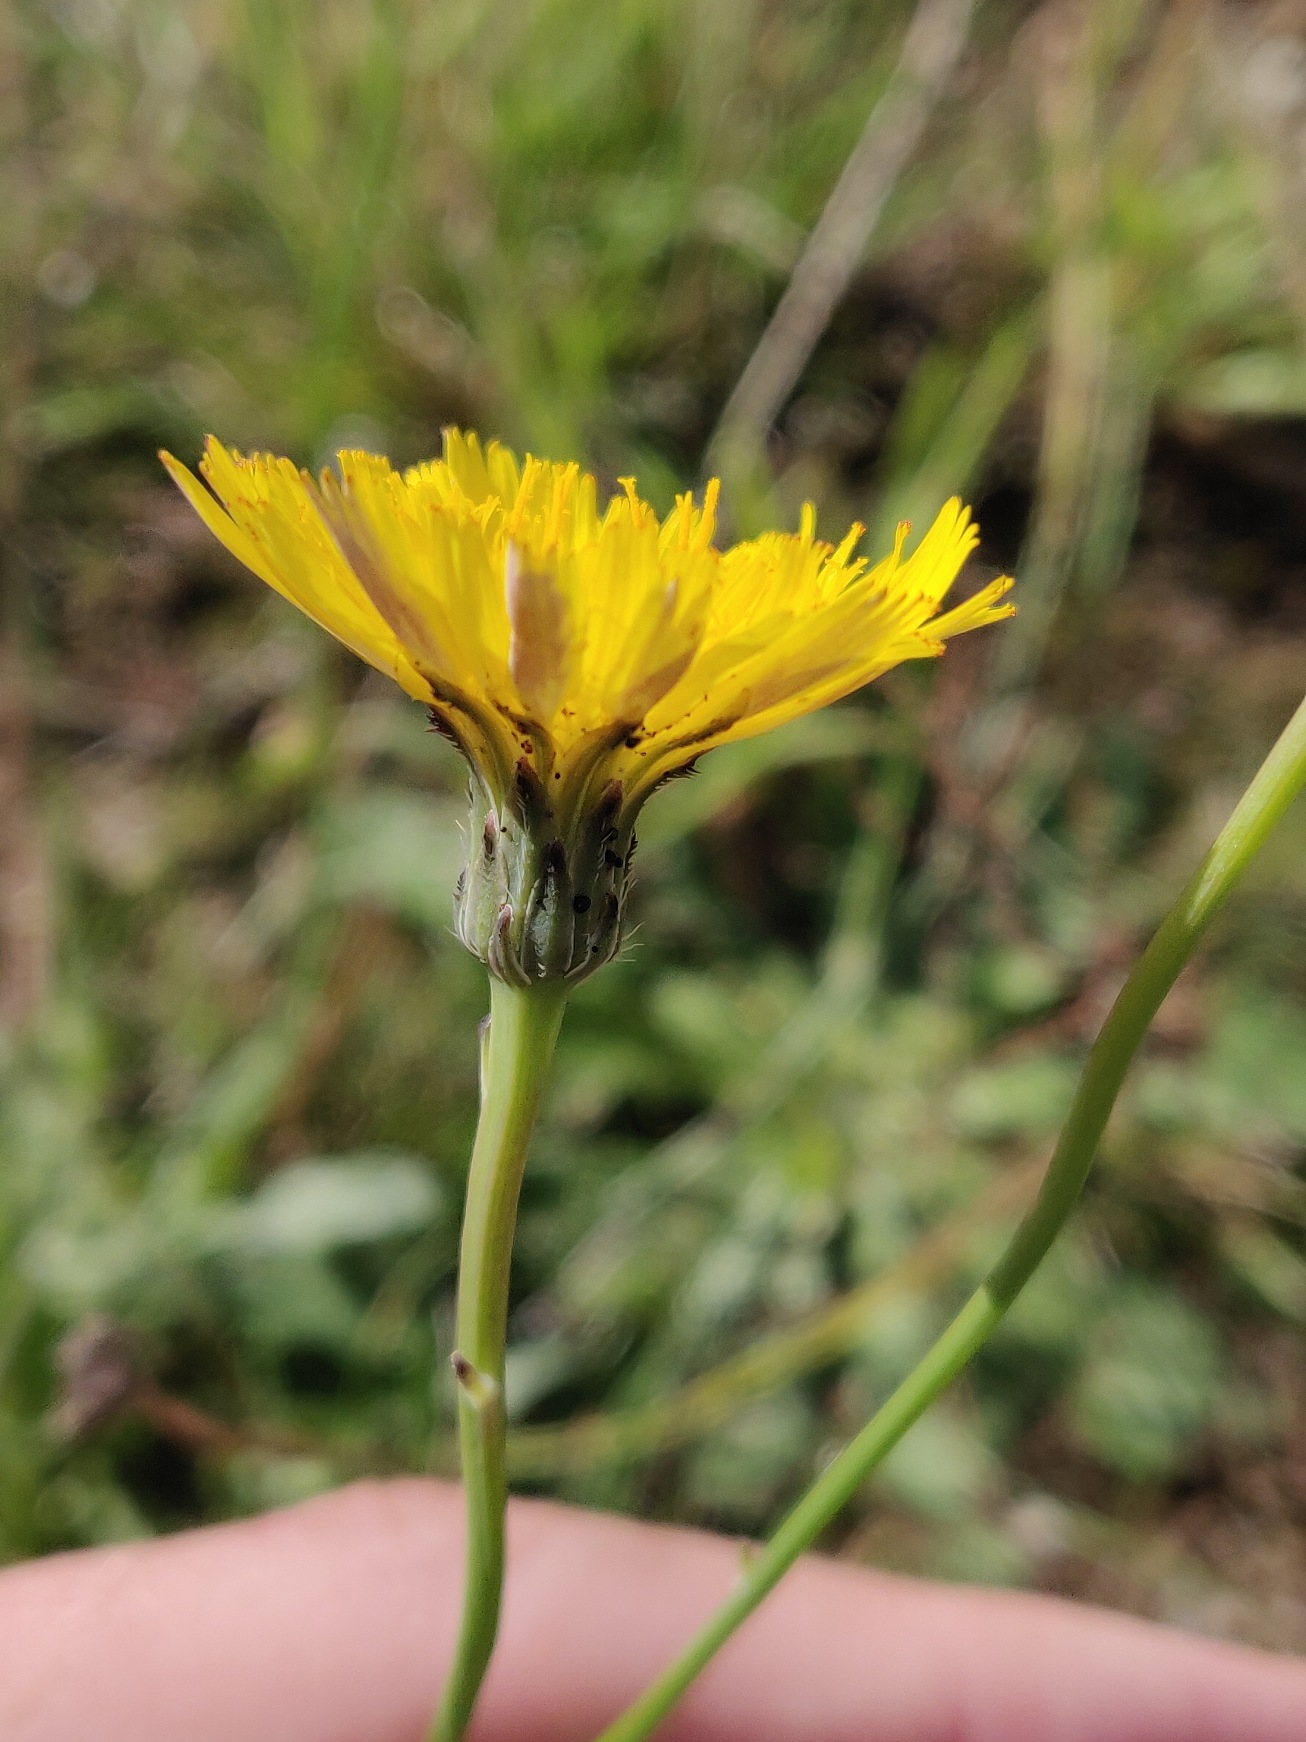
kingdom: Plantae
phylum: Tracheophyta
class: Magnoliopsida
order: Asterales
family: Asteraceae
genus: Hypochaeris
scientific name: Hypochaeris radicata
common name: Almindelig kongepen
